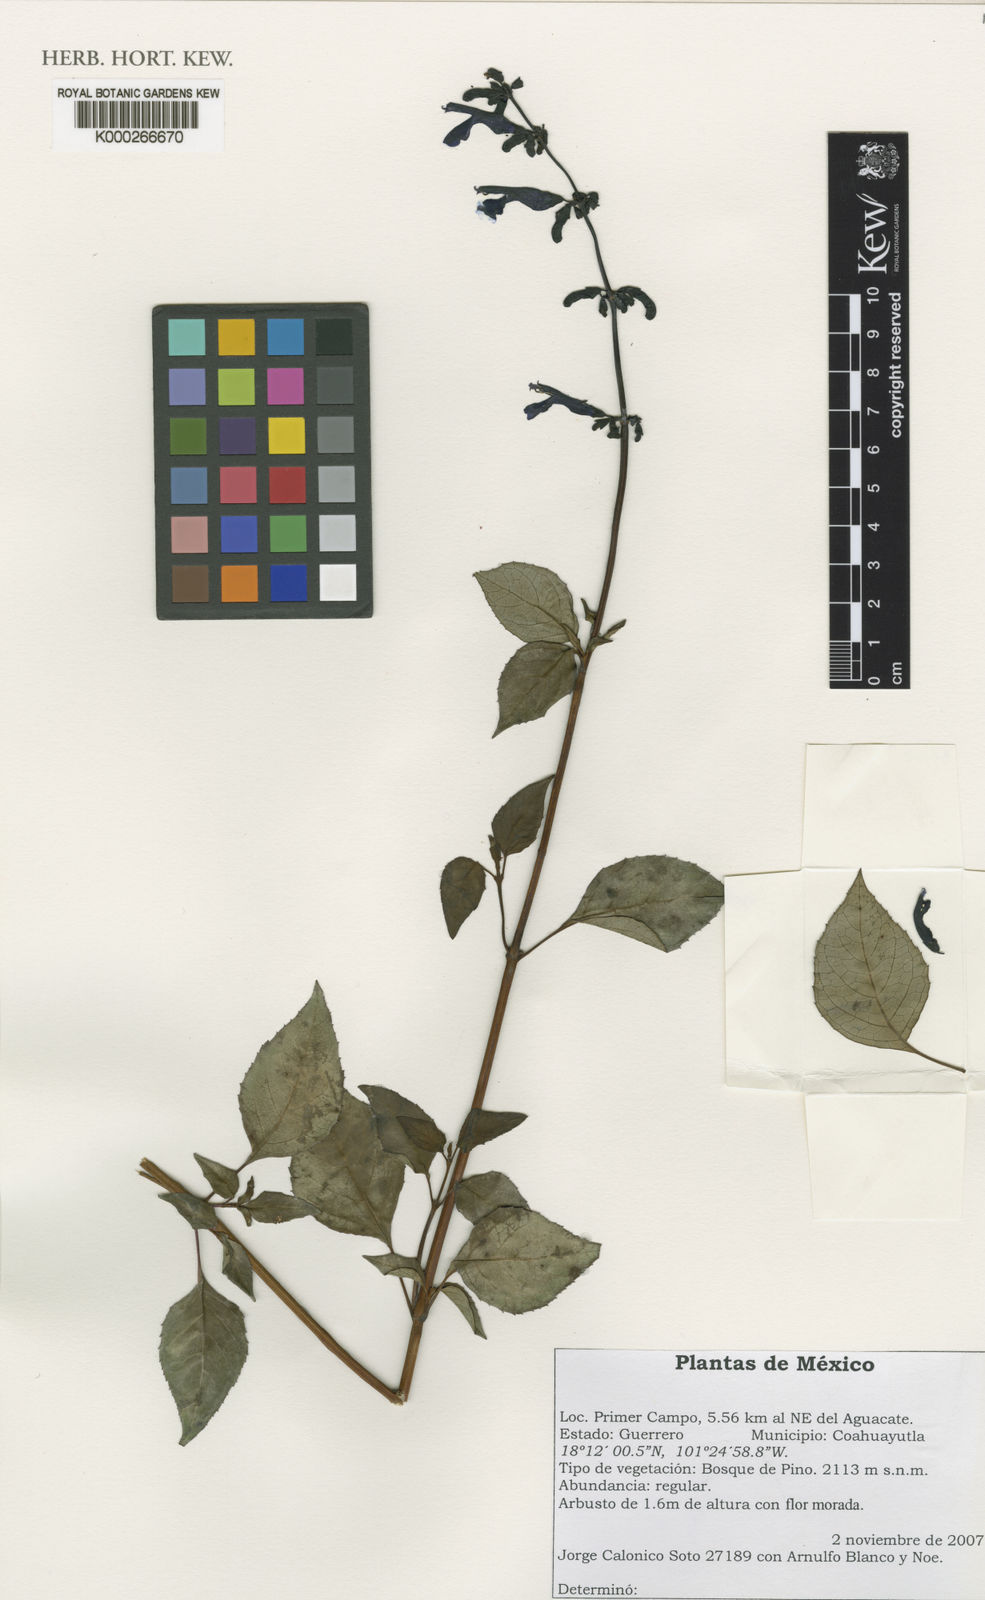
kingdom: Plantae
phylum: Tracheophyta
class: Magnoliopsida
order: Lamiales
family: Lamiaceae
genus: Salvia
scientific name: Salvia hintonii
